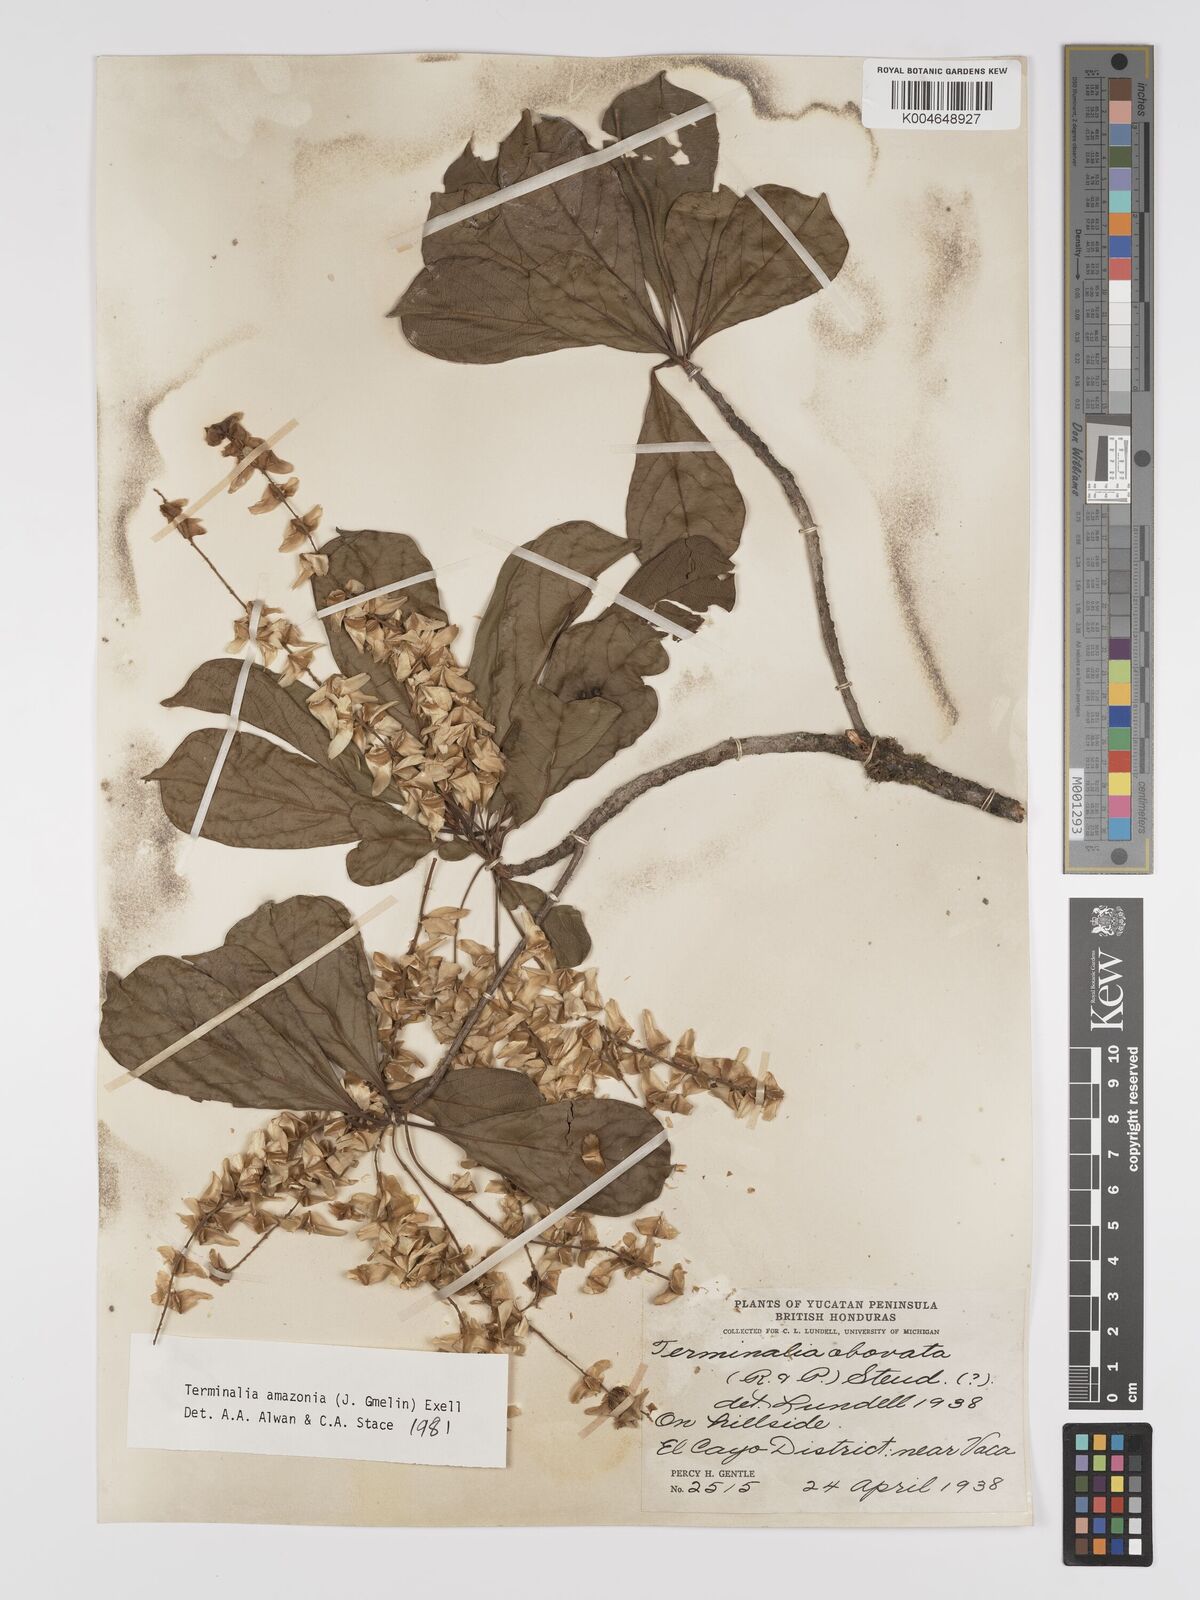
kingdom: Plantae
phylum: Tracheophyta
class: Magnoliopsida
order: Myrtales
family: Combretaceae
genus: Terminalia
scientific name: Terminalia amazonica
